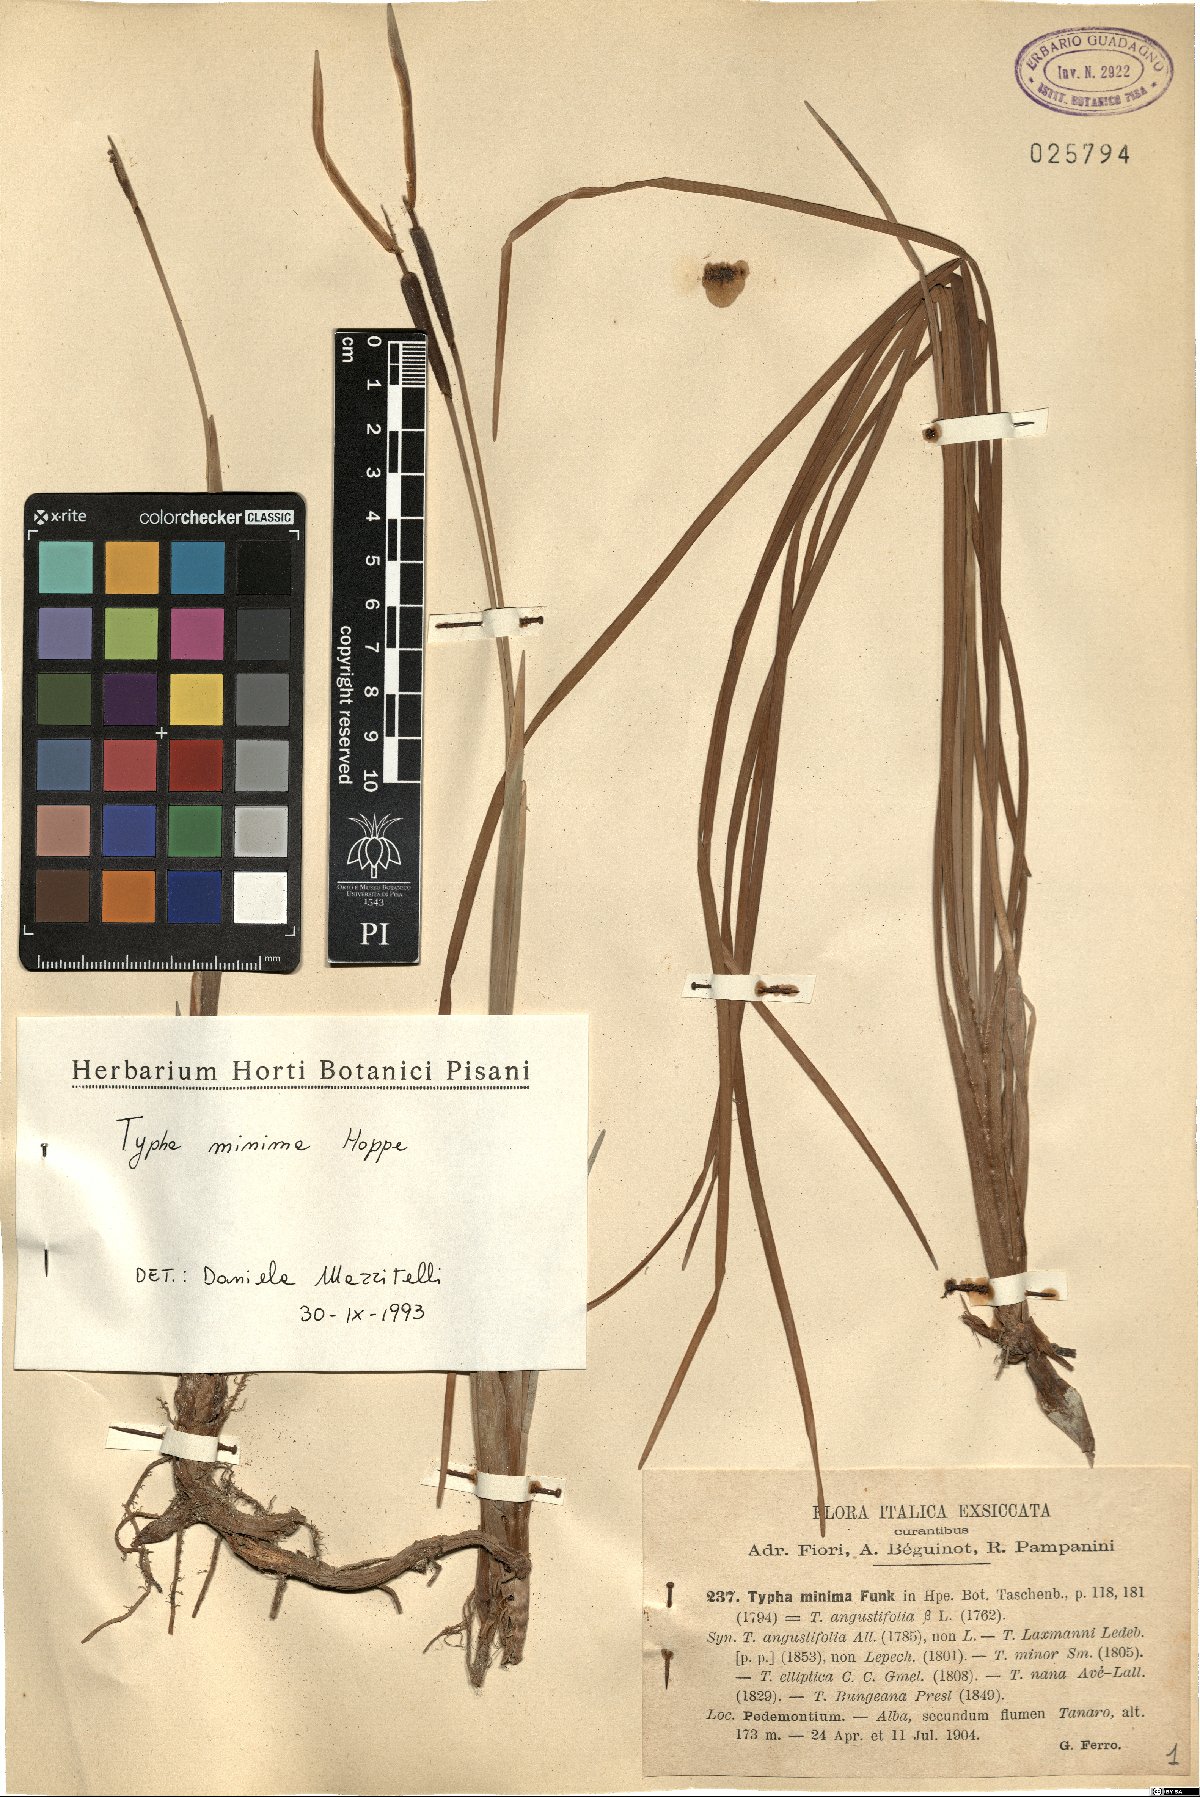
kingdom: Plantae
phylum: Tracheophyta
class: Liliopsida
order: Poales
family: Typhaceae
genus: Typha
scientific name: Typha minima
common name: Dwarf bulrush
